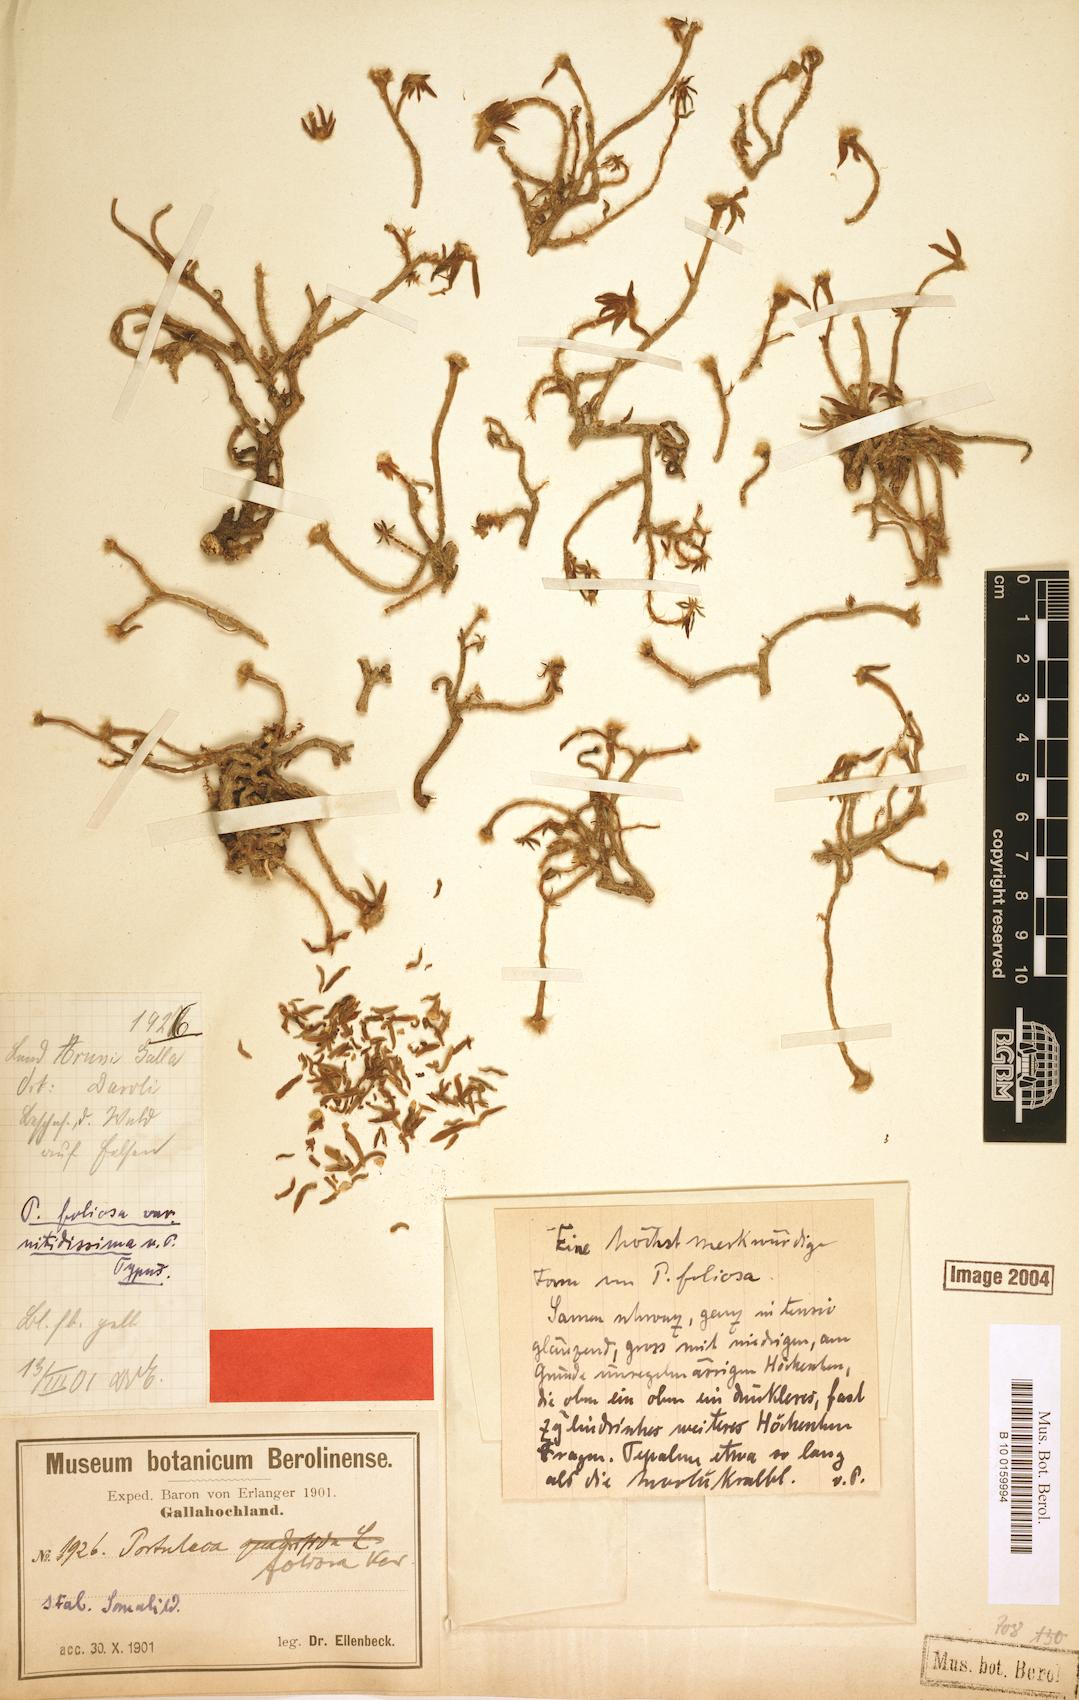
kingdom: Plantae
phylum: Tracheophyta
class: Magnoliopsida
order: Caryophyllales
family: Portulacaceae
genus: Portulaca
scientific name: Portulaca foliosa
